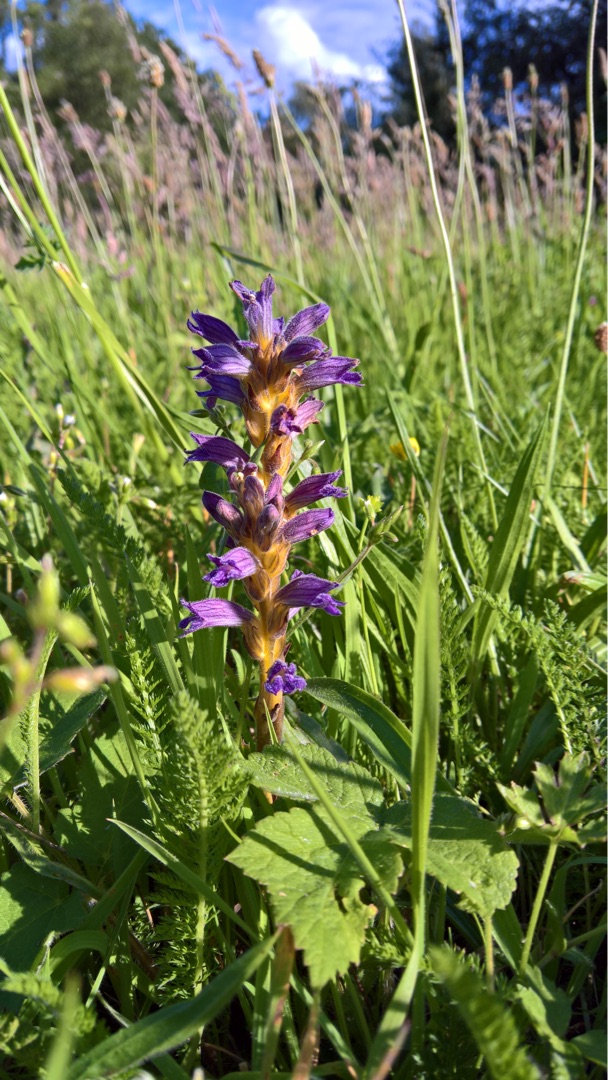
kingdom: Plantae
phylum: Tracheophyta
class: Magnoliopsida
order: Lamiales
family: Orobanchaceae
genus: Phelipanche
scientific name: Phelipanche purpurea
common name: Røllike-gyvelkvæler
